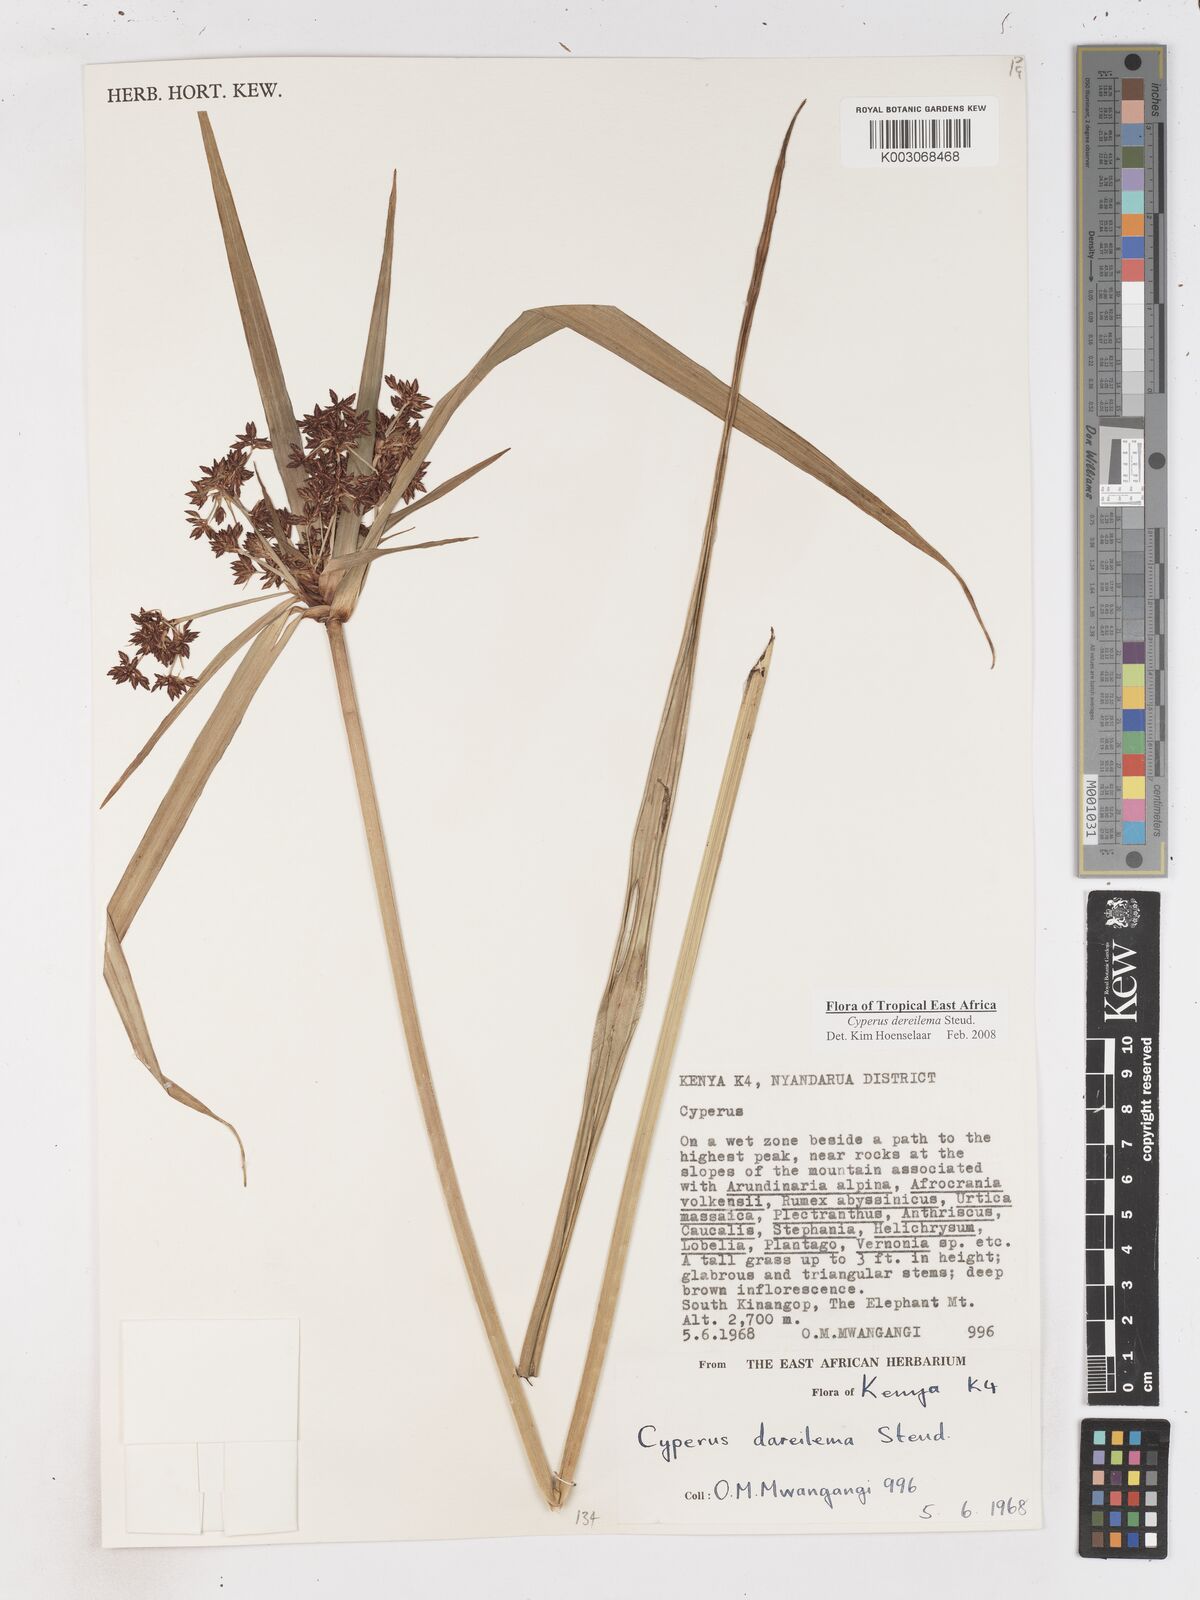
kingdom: Plantae
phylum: Tracheophyta
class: Liliopsida
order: Poales
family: Cyperaceae
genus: Cyperus
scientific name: Cyperus derreilema
